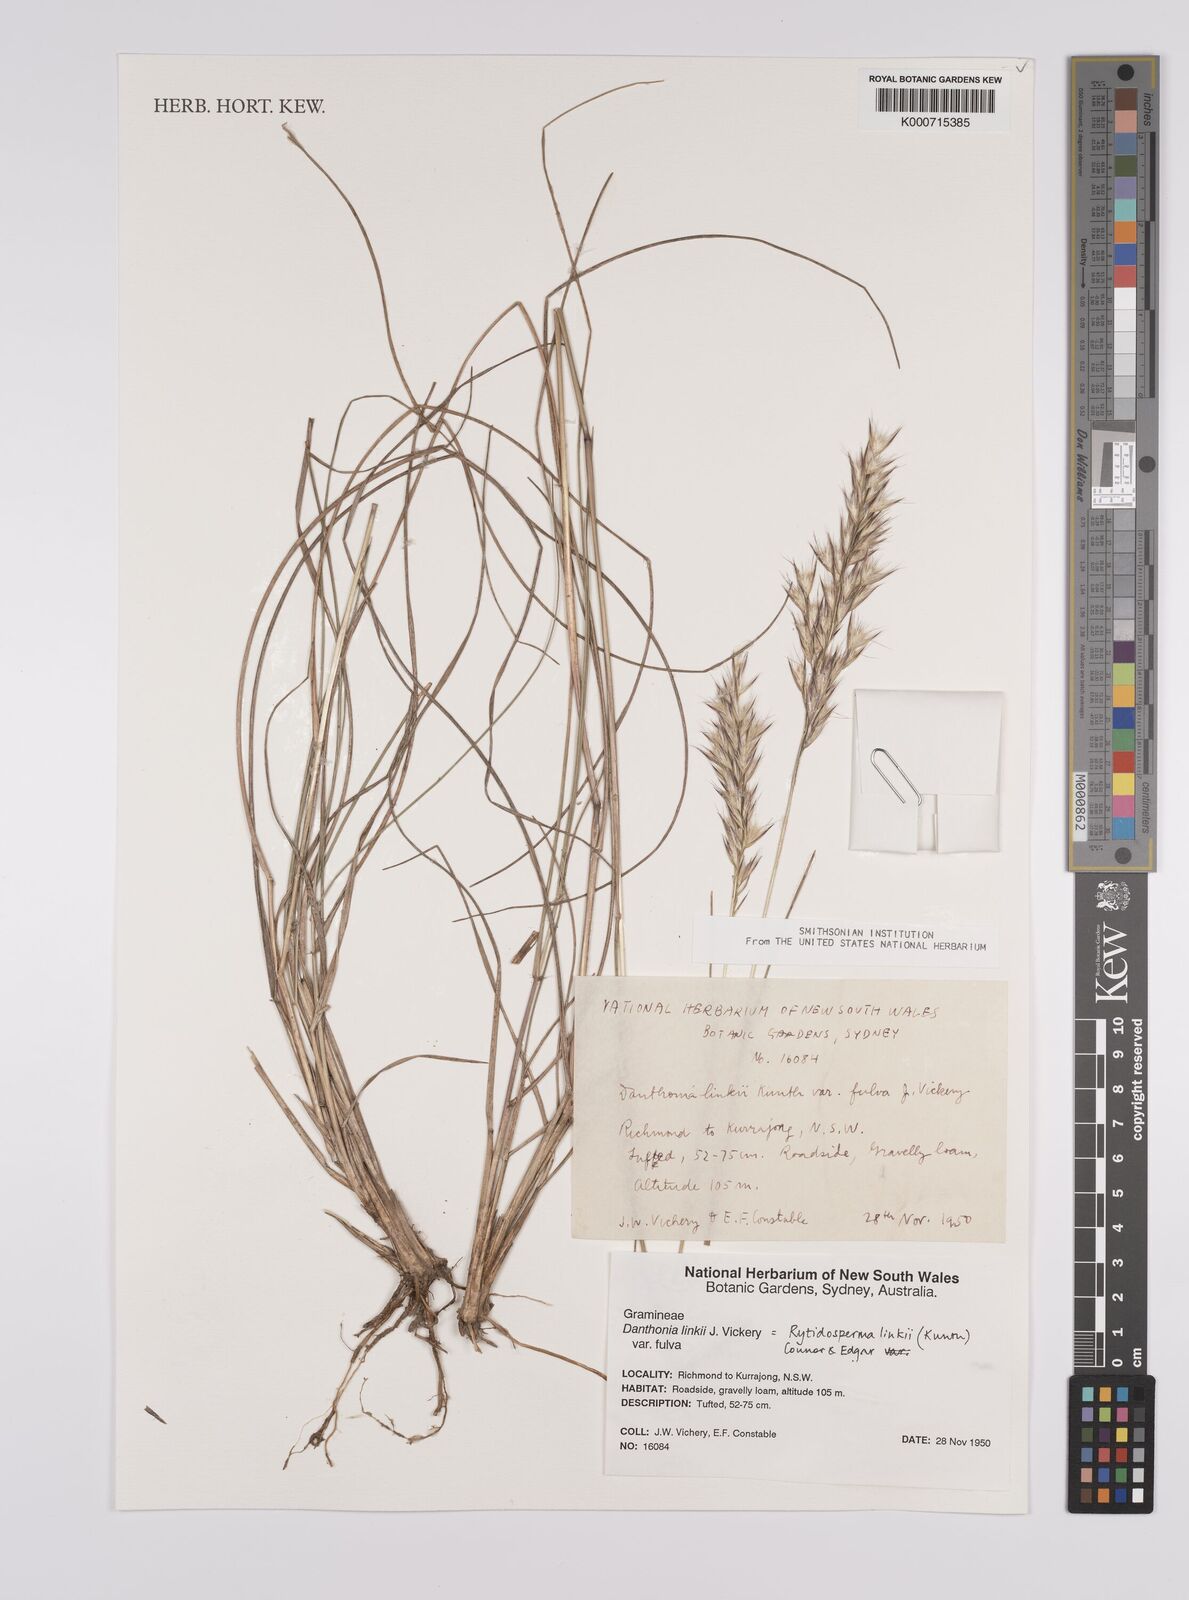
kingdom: Plantae
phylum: Tracheophyta
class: Liliopsida
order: Poales
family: Poaceae
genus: Rytidosperma
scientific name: Rytidosperma bipartitum
